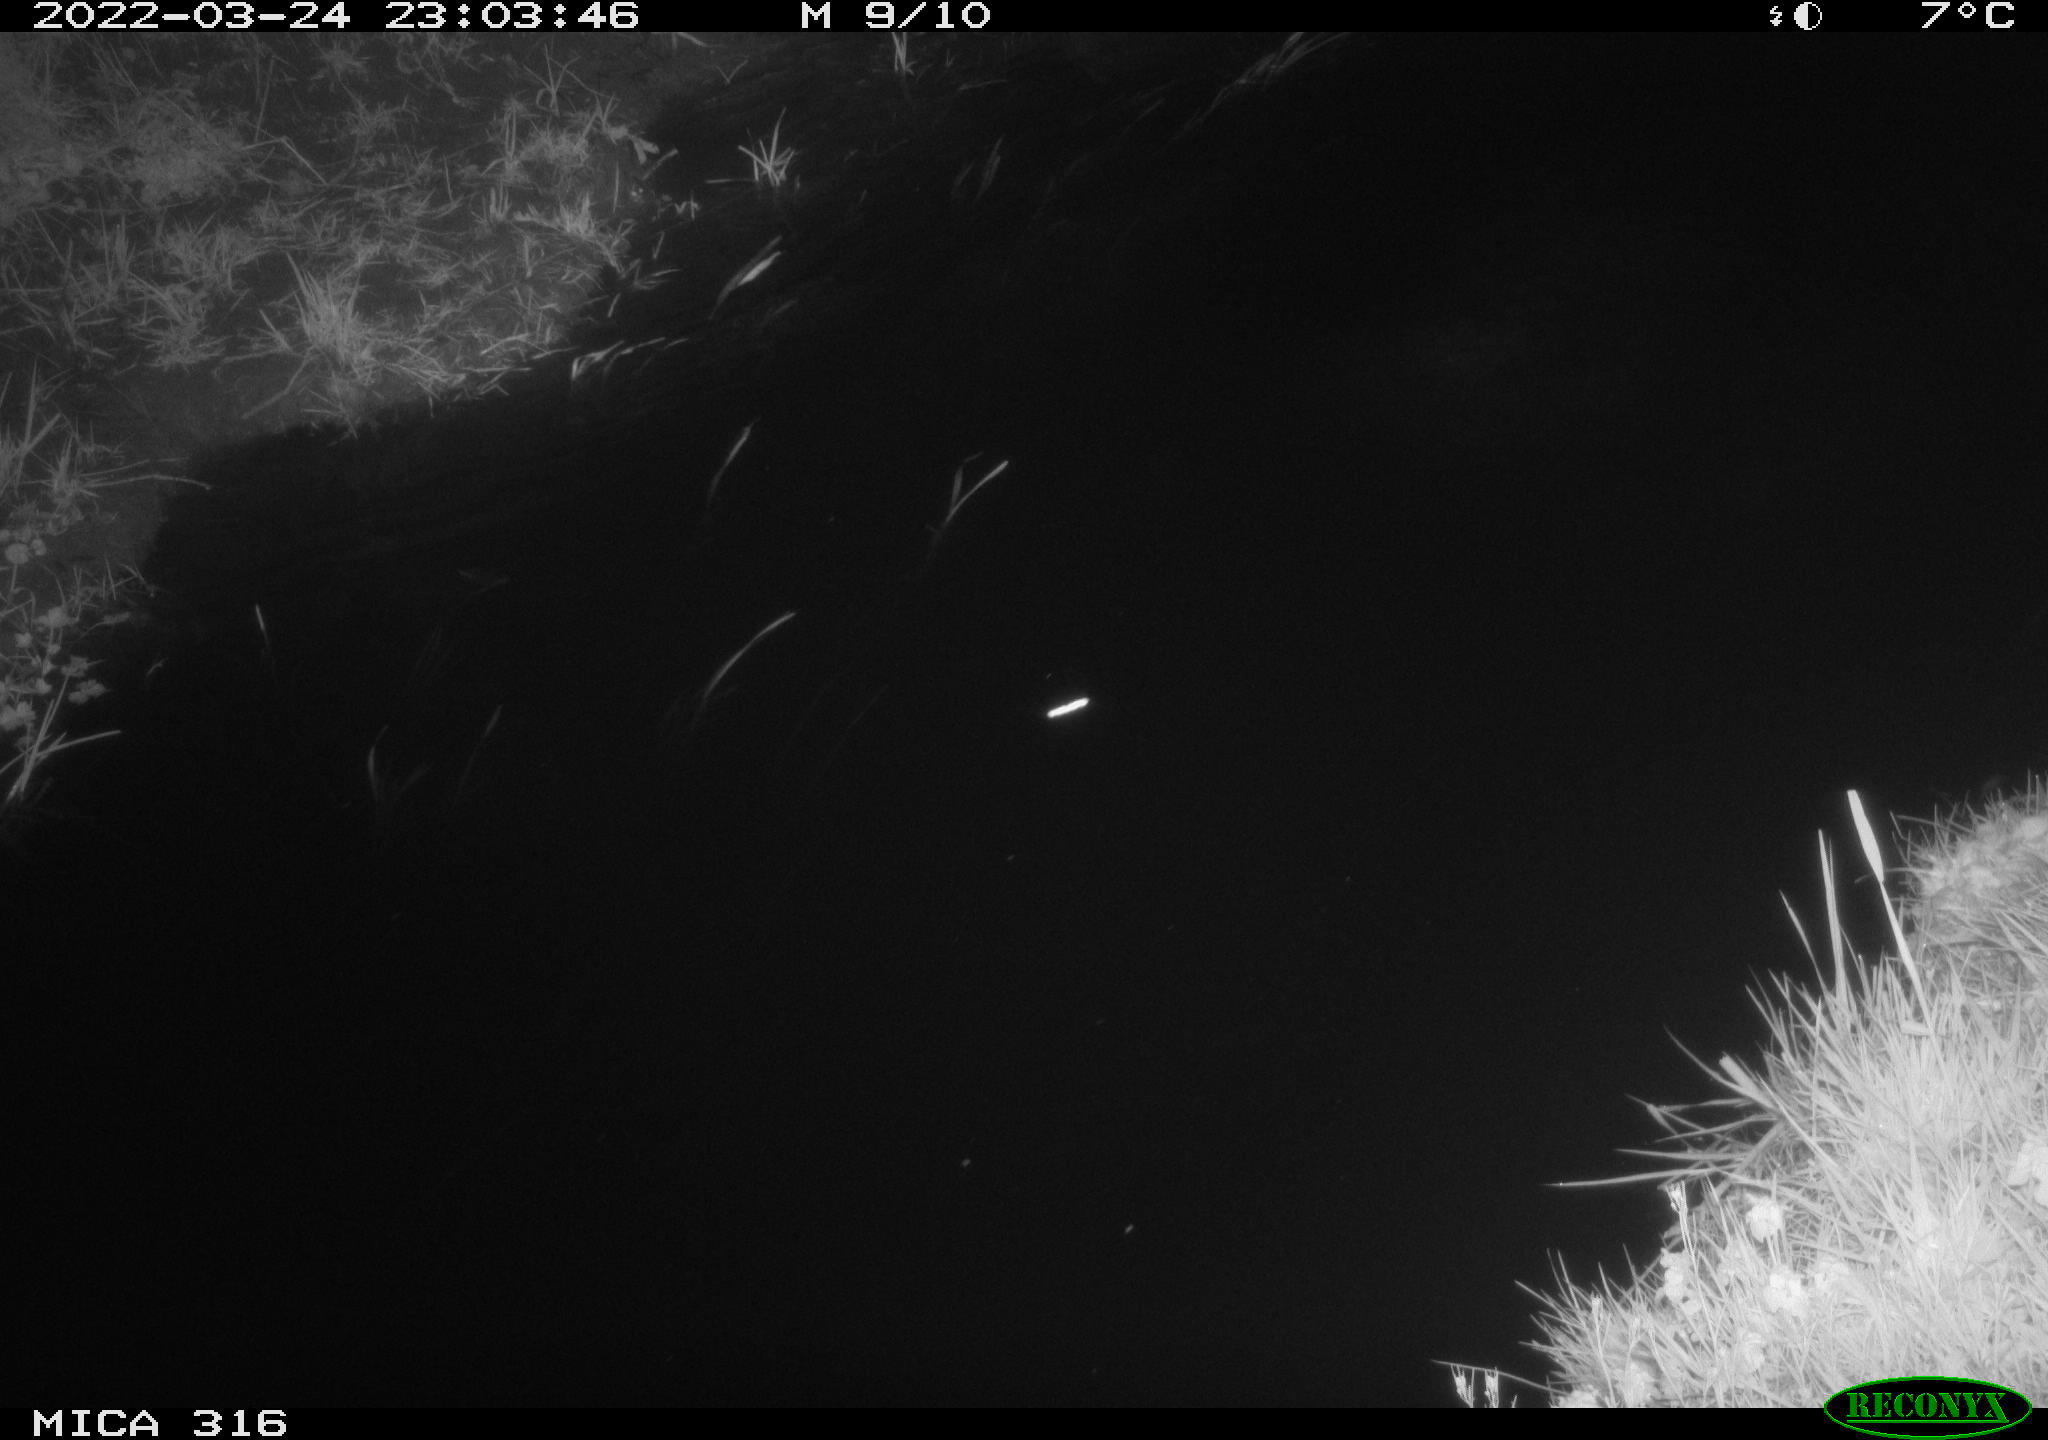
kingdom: Animalia
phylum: Chordata
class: Aves
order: Anseriformes
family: Anatidae
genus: Anas
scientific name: Anas platyrhynchos
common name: Mallard
